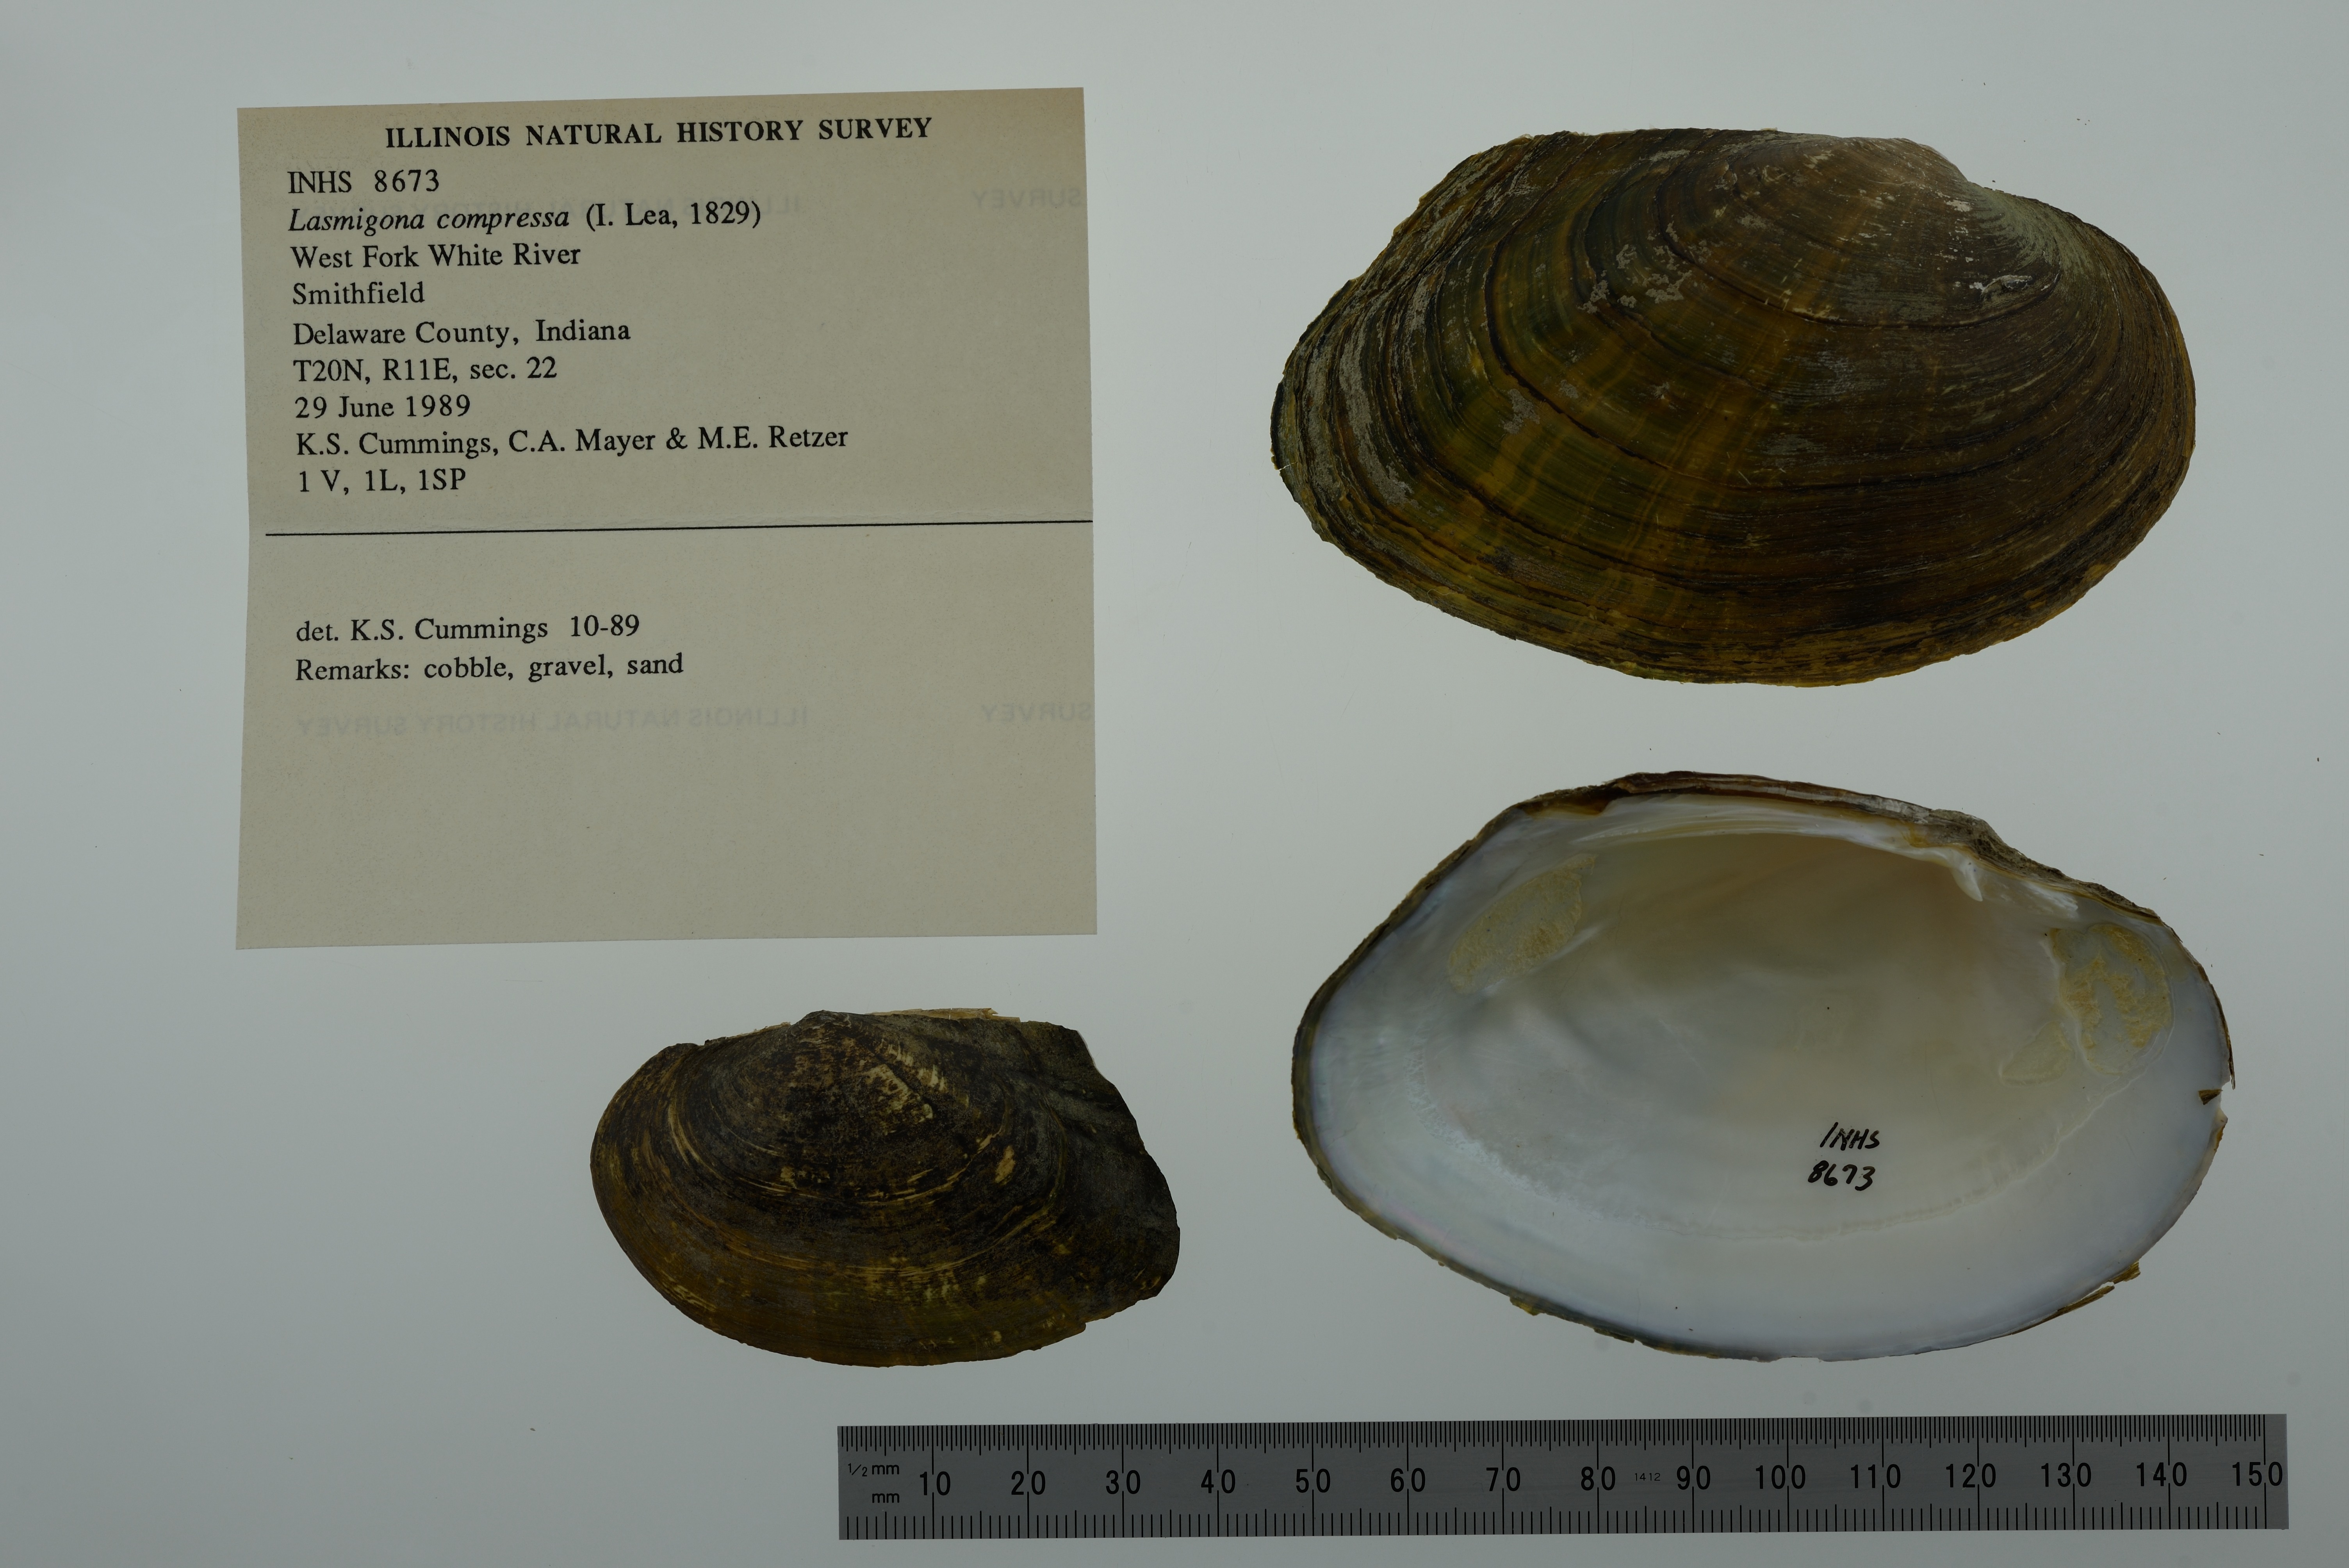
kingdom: Animalia
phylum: Mollusca
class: Bivalvia
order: Unionida
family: Unionidae
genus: Lasmigona
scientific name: Lasmigona compressa
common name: Creek heelsplitter
